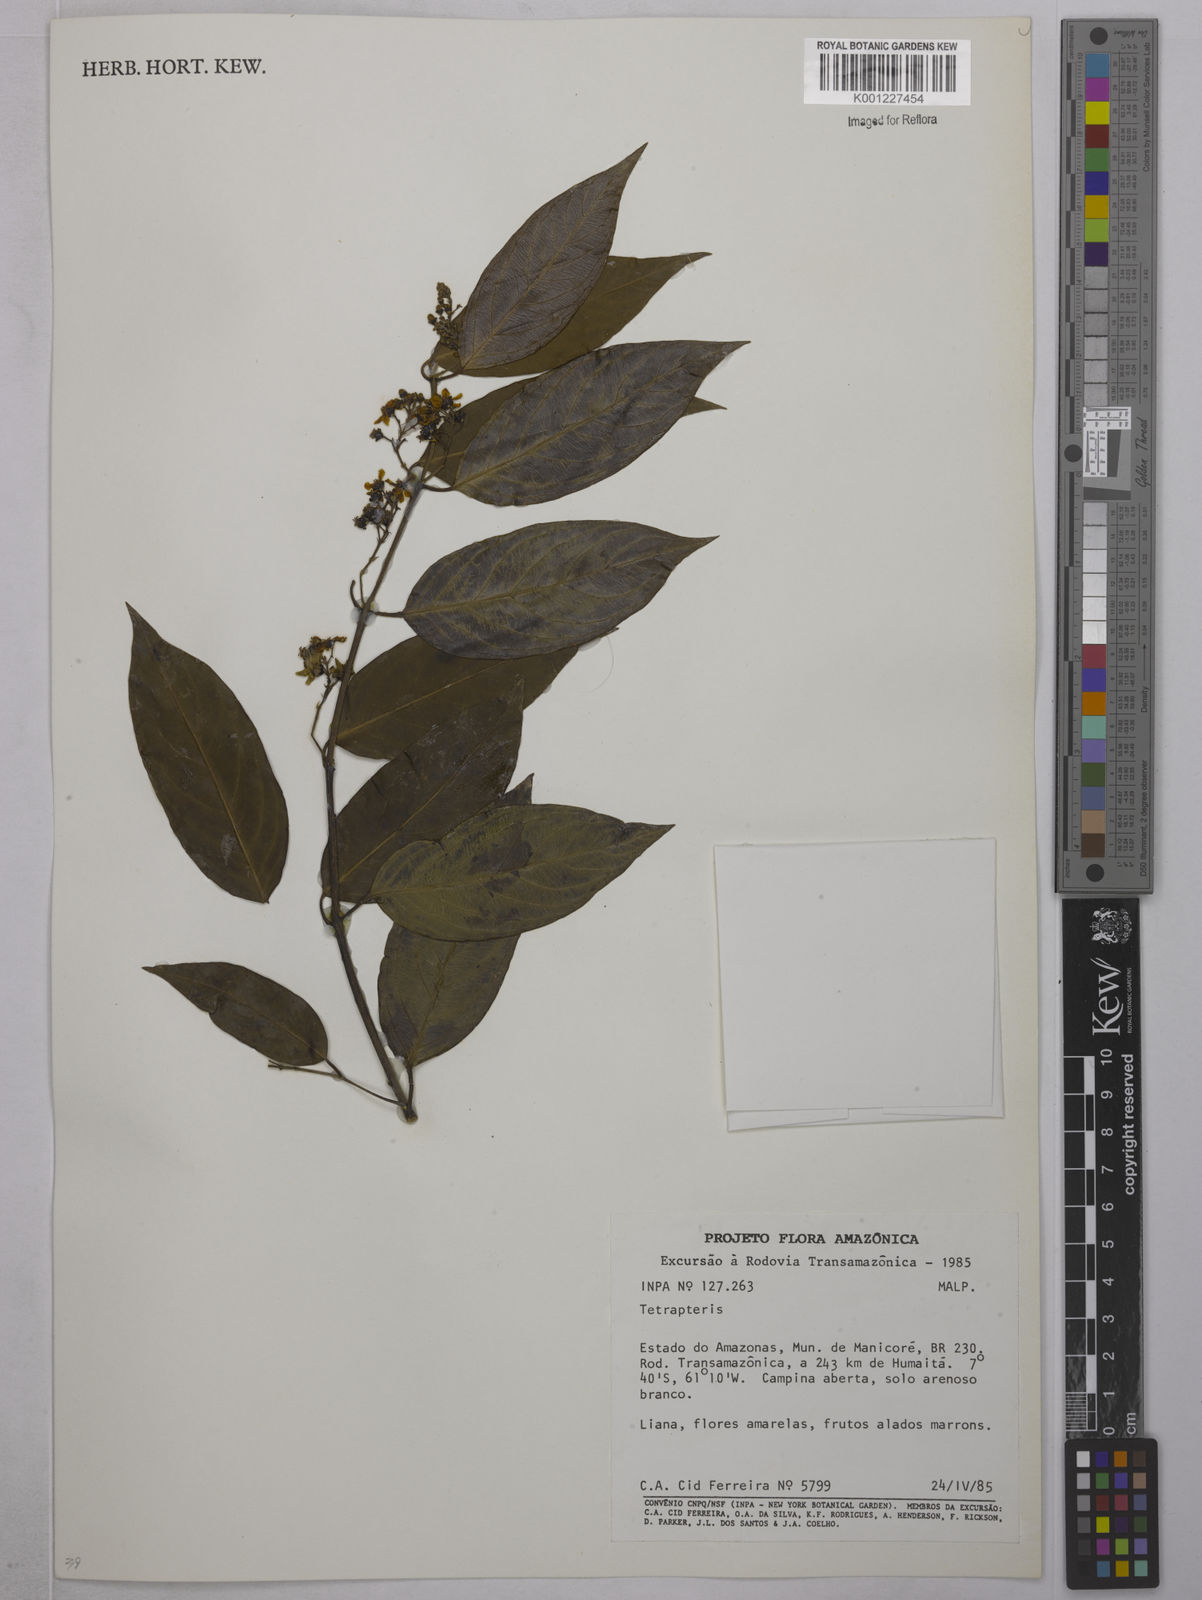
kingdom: Plantae
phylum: Tracheophyta
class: Magnoliopsida
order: Malpighiales
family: Malpighiaceae
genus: Tetrapterys
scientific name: Tetrapterys
